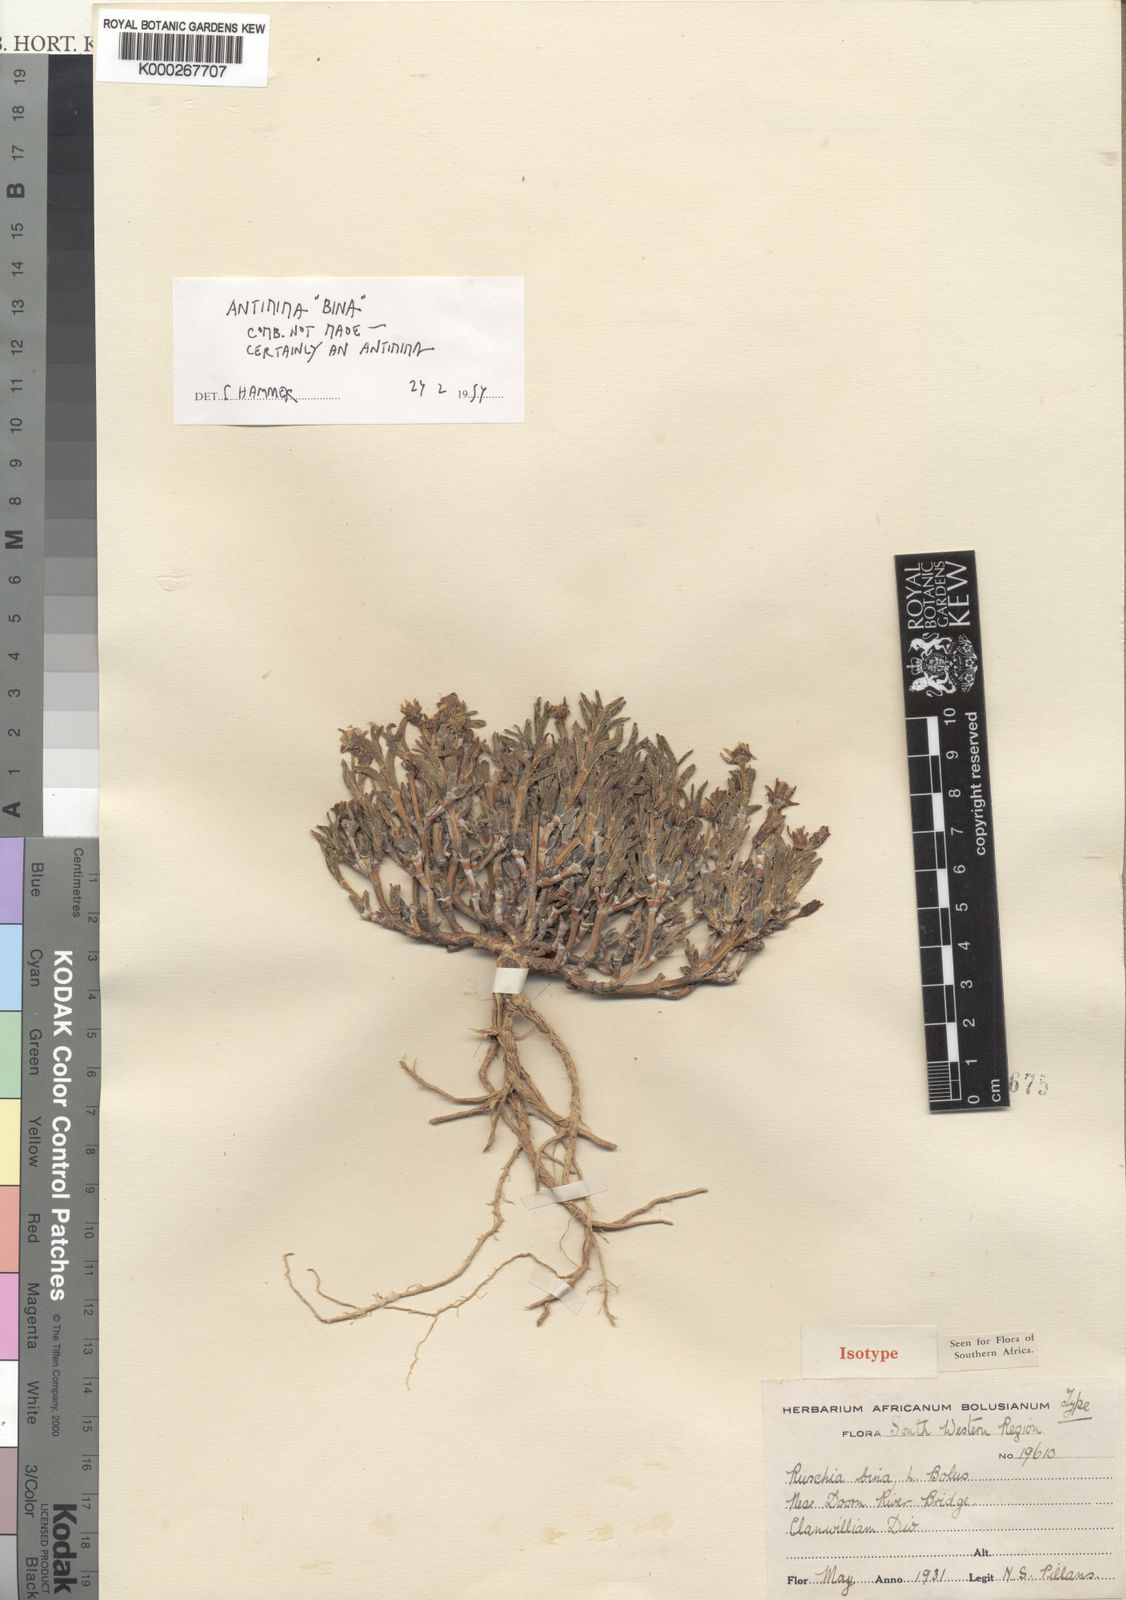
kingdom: Plantae
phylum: Tracheophyta
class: Magnoliopsida
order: Caryophyllales
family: Aizoaceae
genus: Antimima
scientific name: Antimima viatorum
